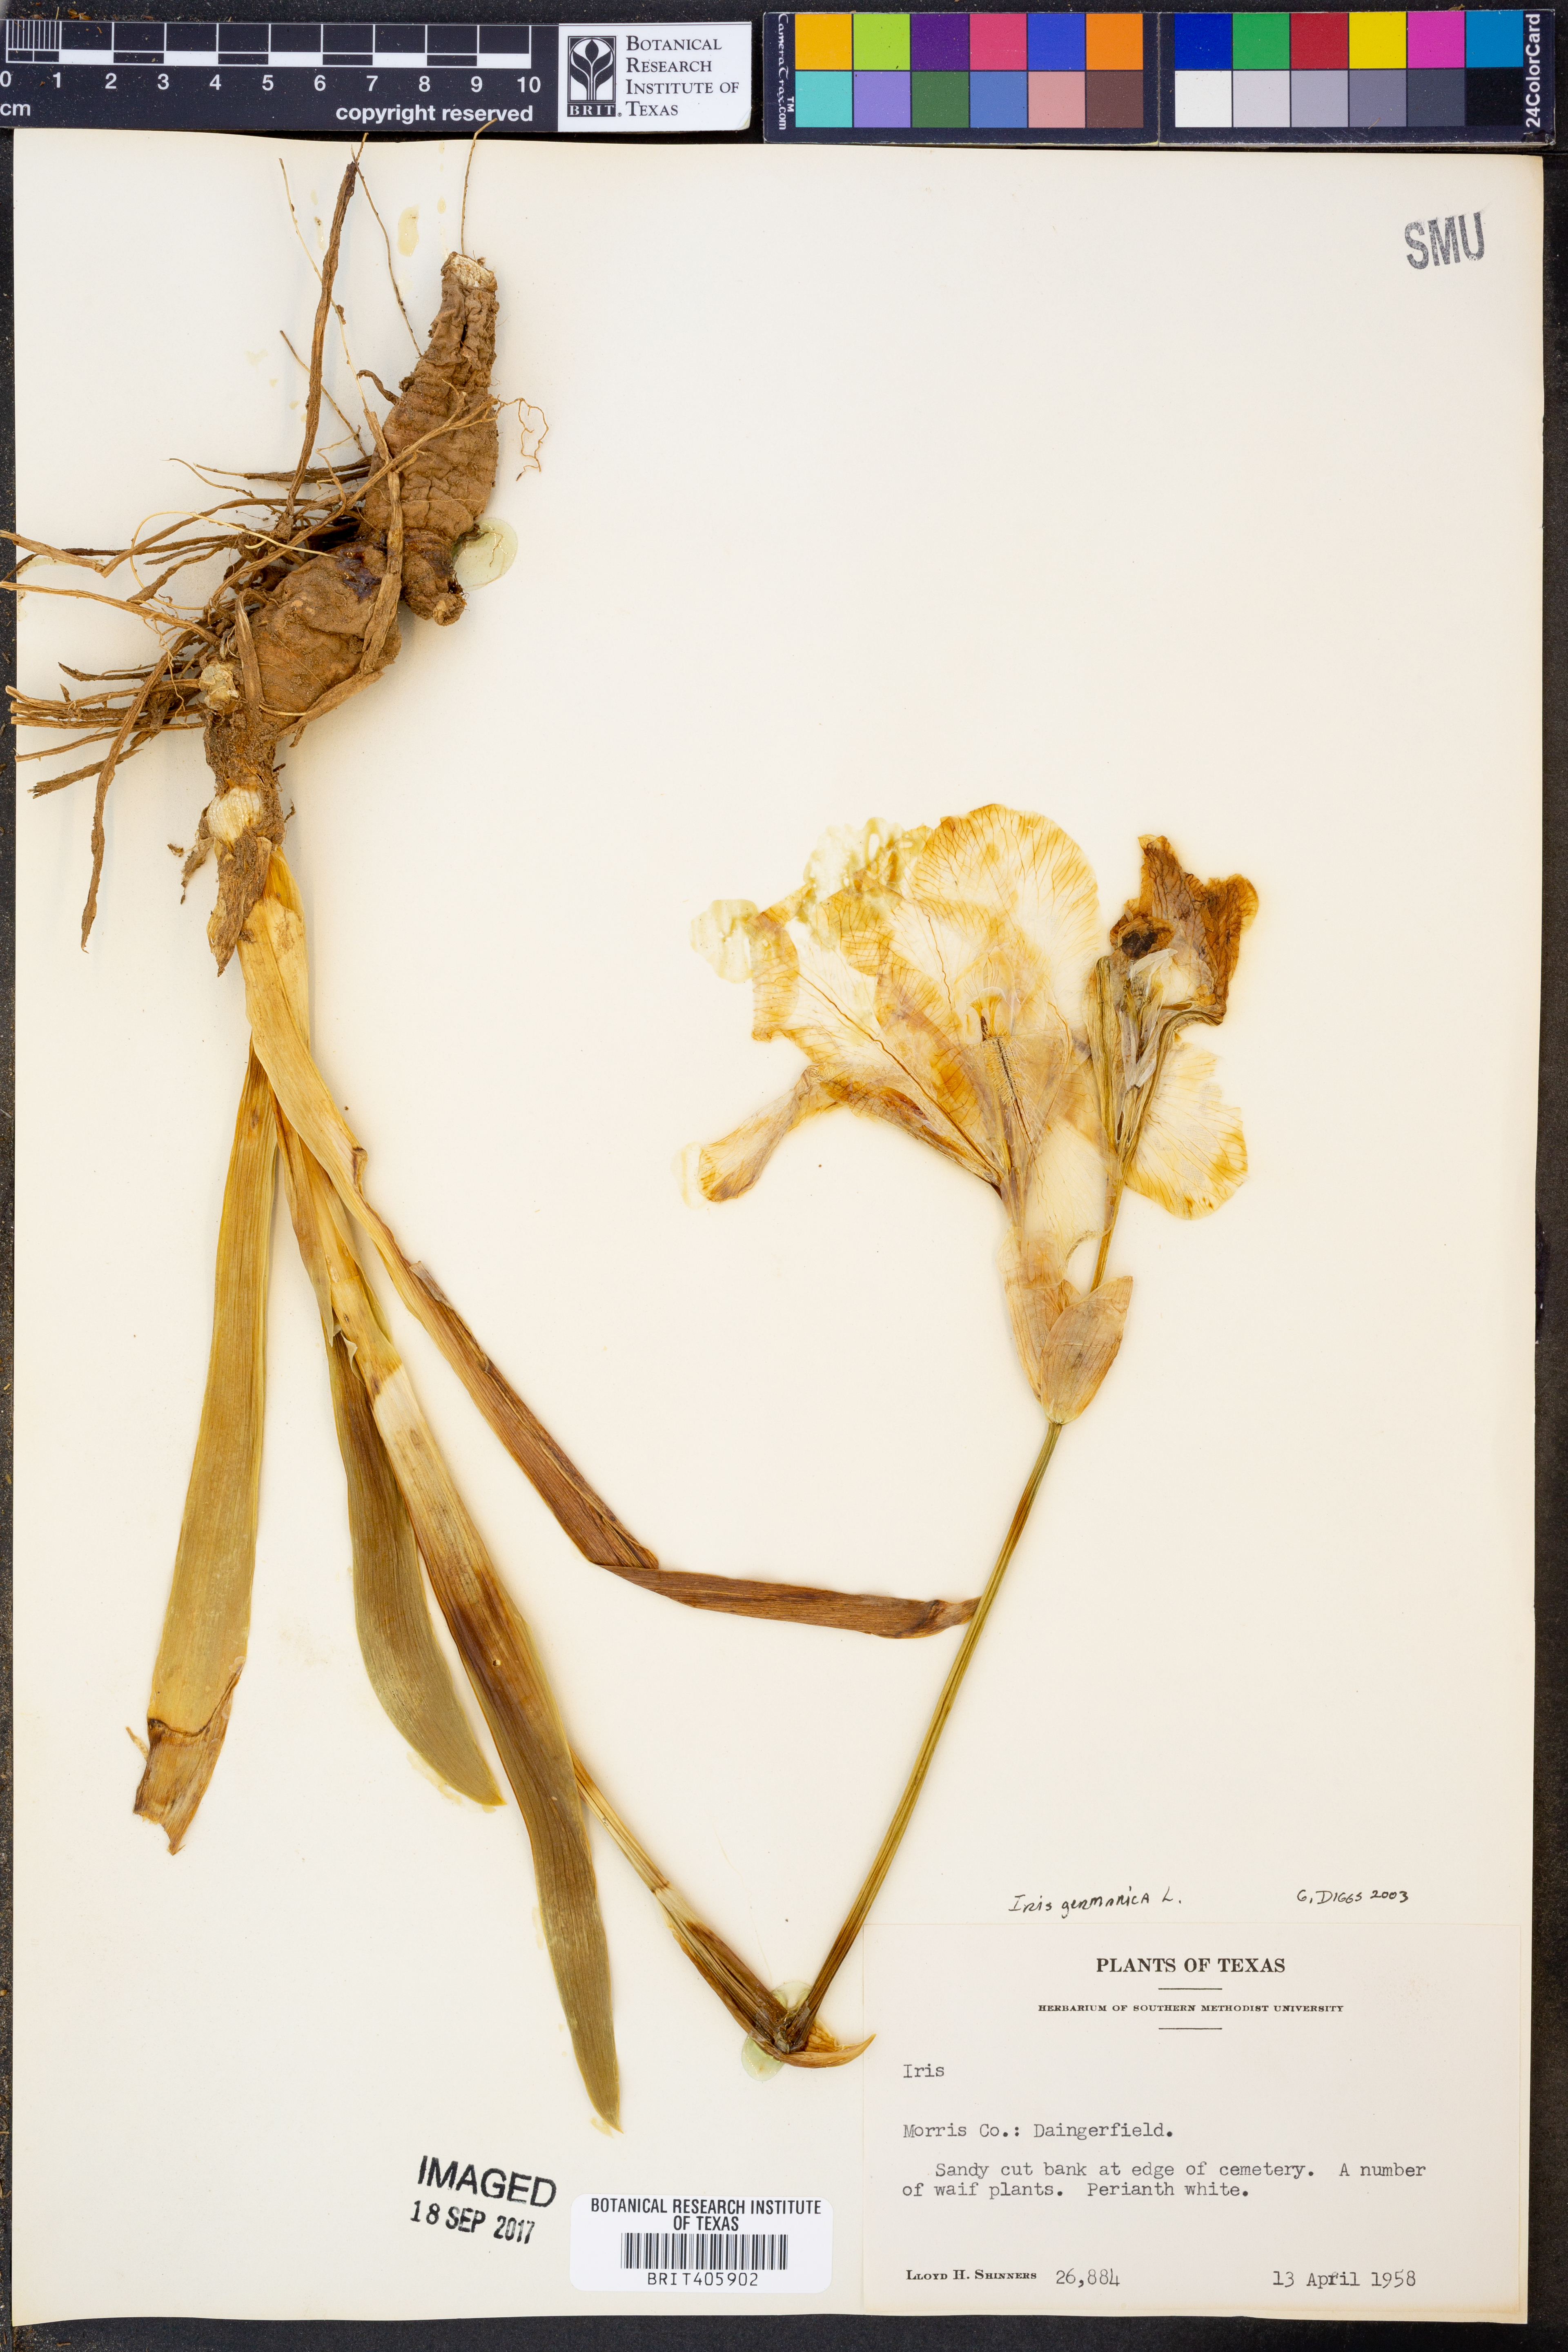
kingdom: Plantae
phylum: Tracheophyta
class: Liliopsida
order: Asparagales
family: Iridaceae
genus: Iris
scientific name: Iris germanica
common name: German iris
